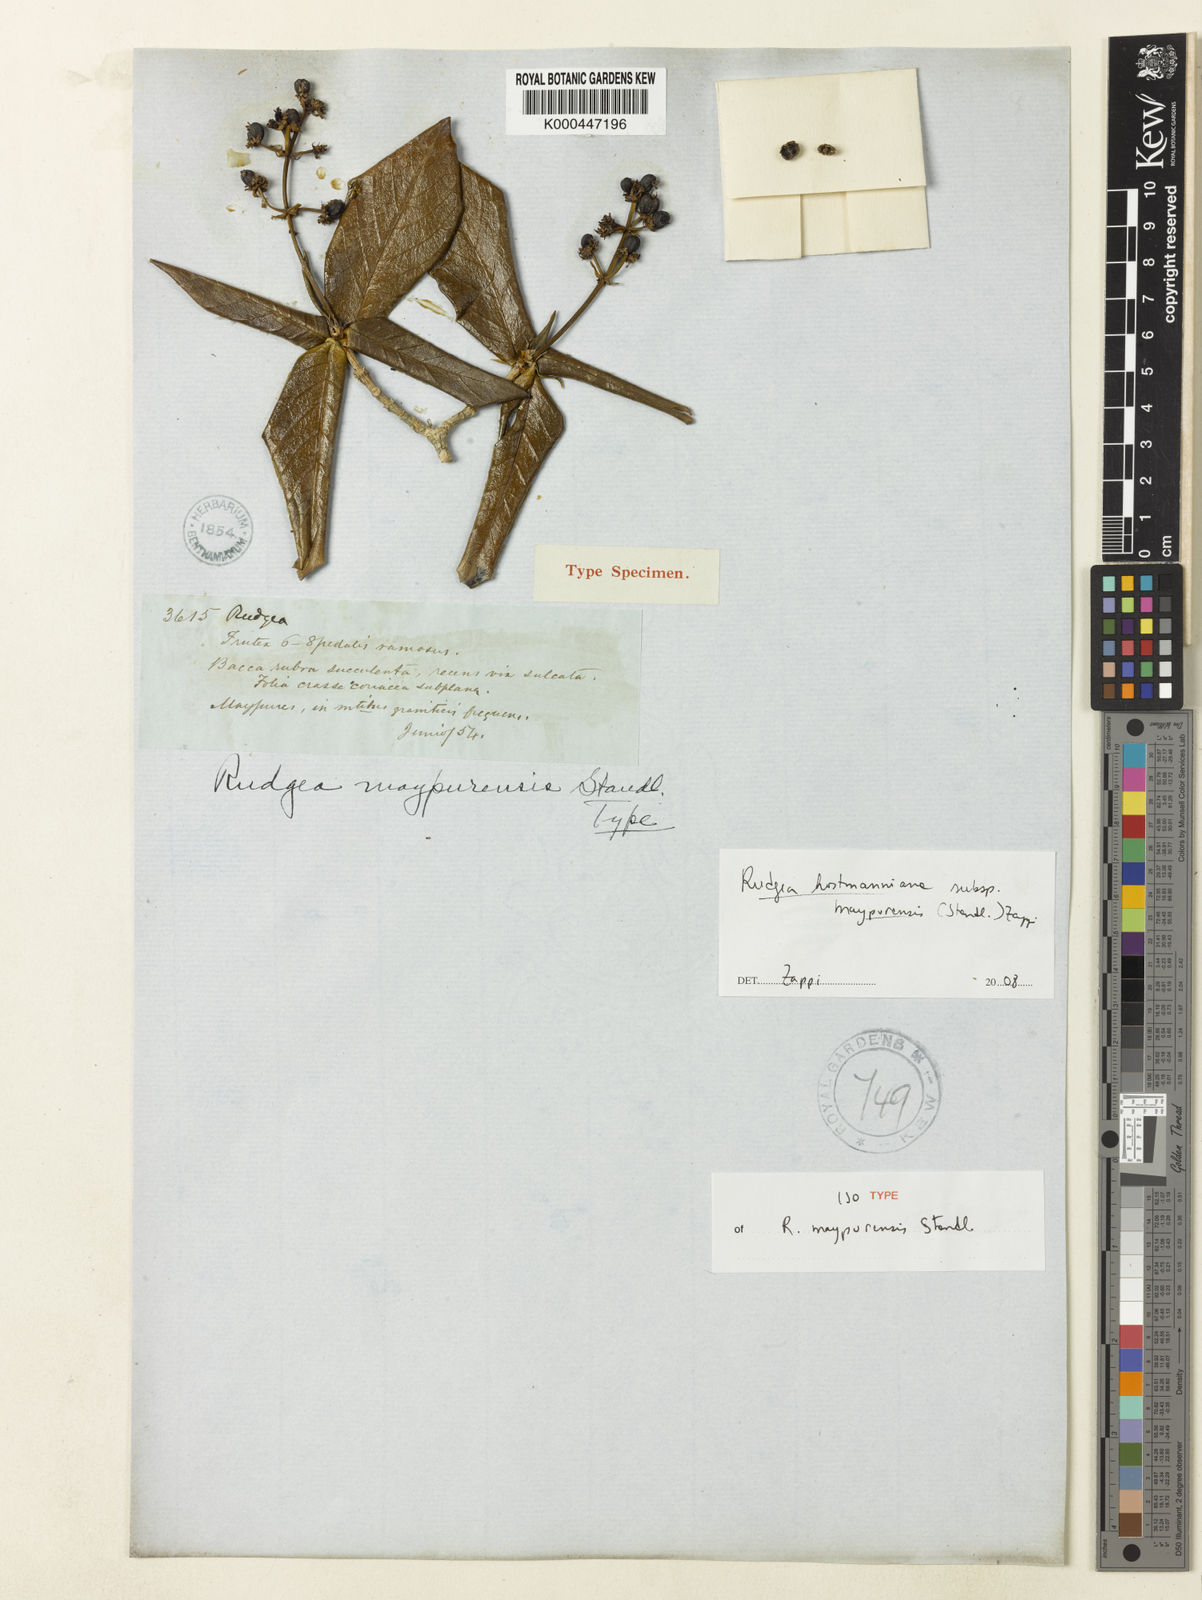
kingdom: Plantae
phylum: Tracheophyta
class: Magnoliopsida
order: Gentianales
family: Rubiaceae
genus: Rudgea
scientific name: Rudgea hostmanniana
